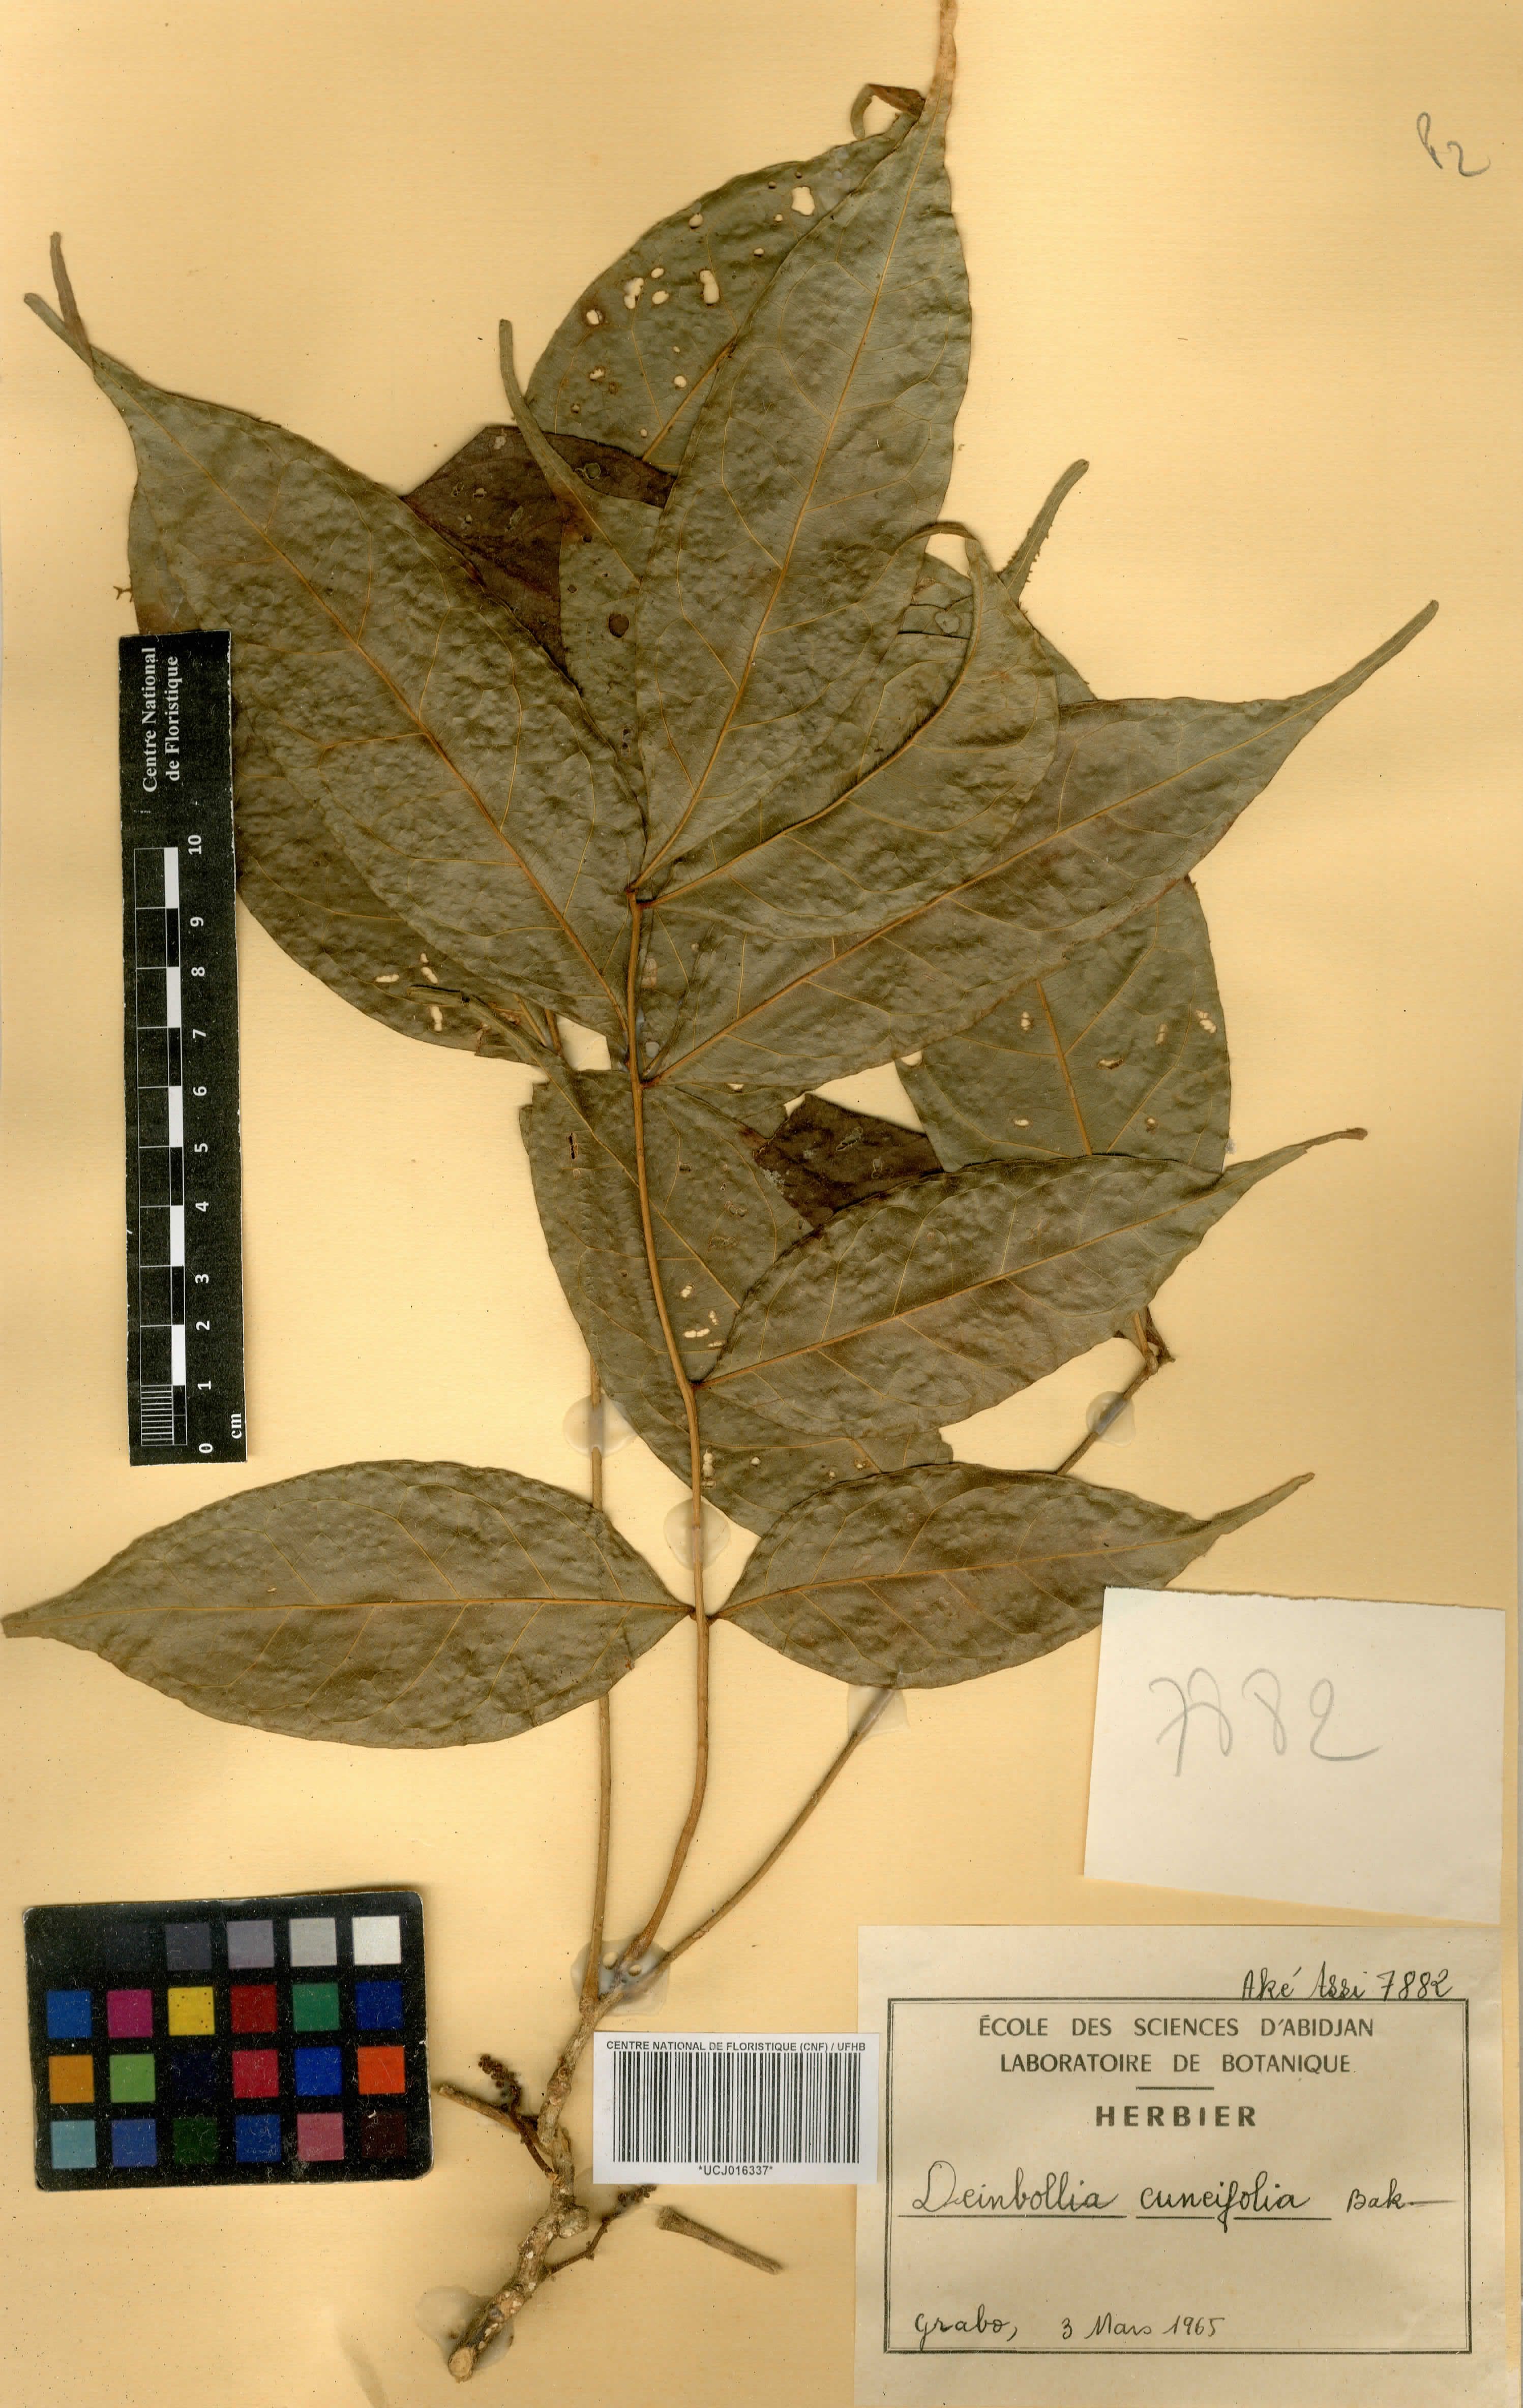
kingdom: Plantae
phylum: Tracheophyta
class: Magnoliopsida
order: Sapindales
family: Sapindaceae
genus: Deinbollia
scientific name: Deinbollia cuneifolia
